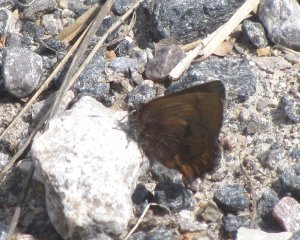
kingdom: Animalia
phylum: Arthropoda
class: Insecta
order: Lepidoptera
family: Lycaenidae
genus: Incisalia
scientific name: Incisalia irioides
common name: Brown Elfin
